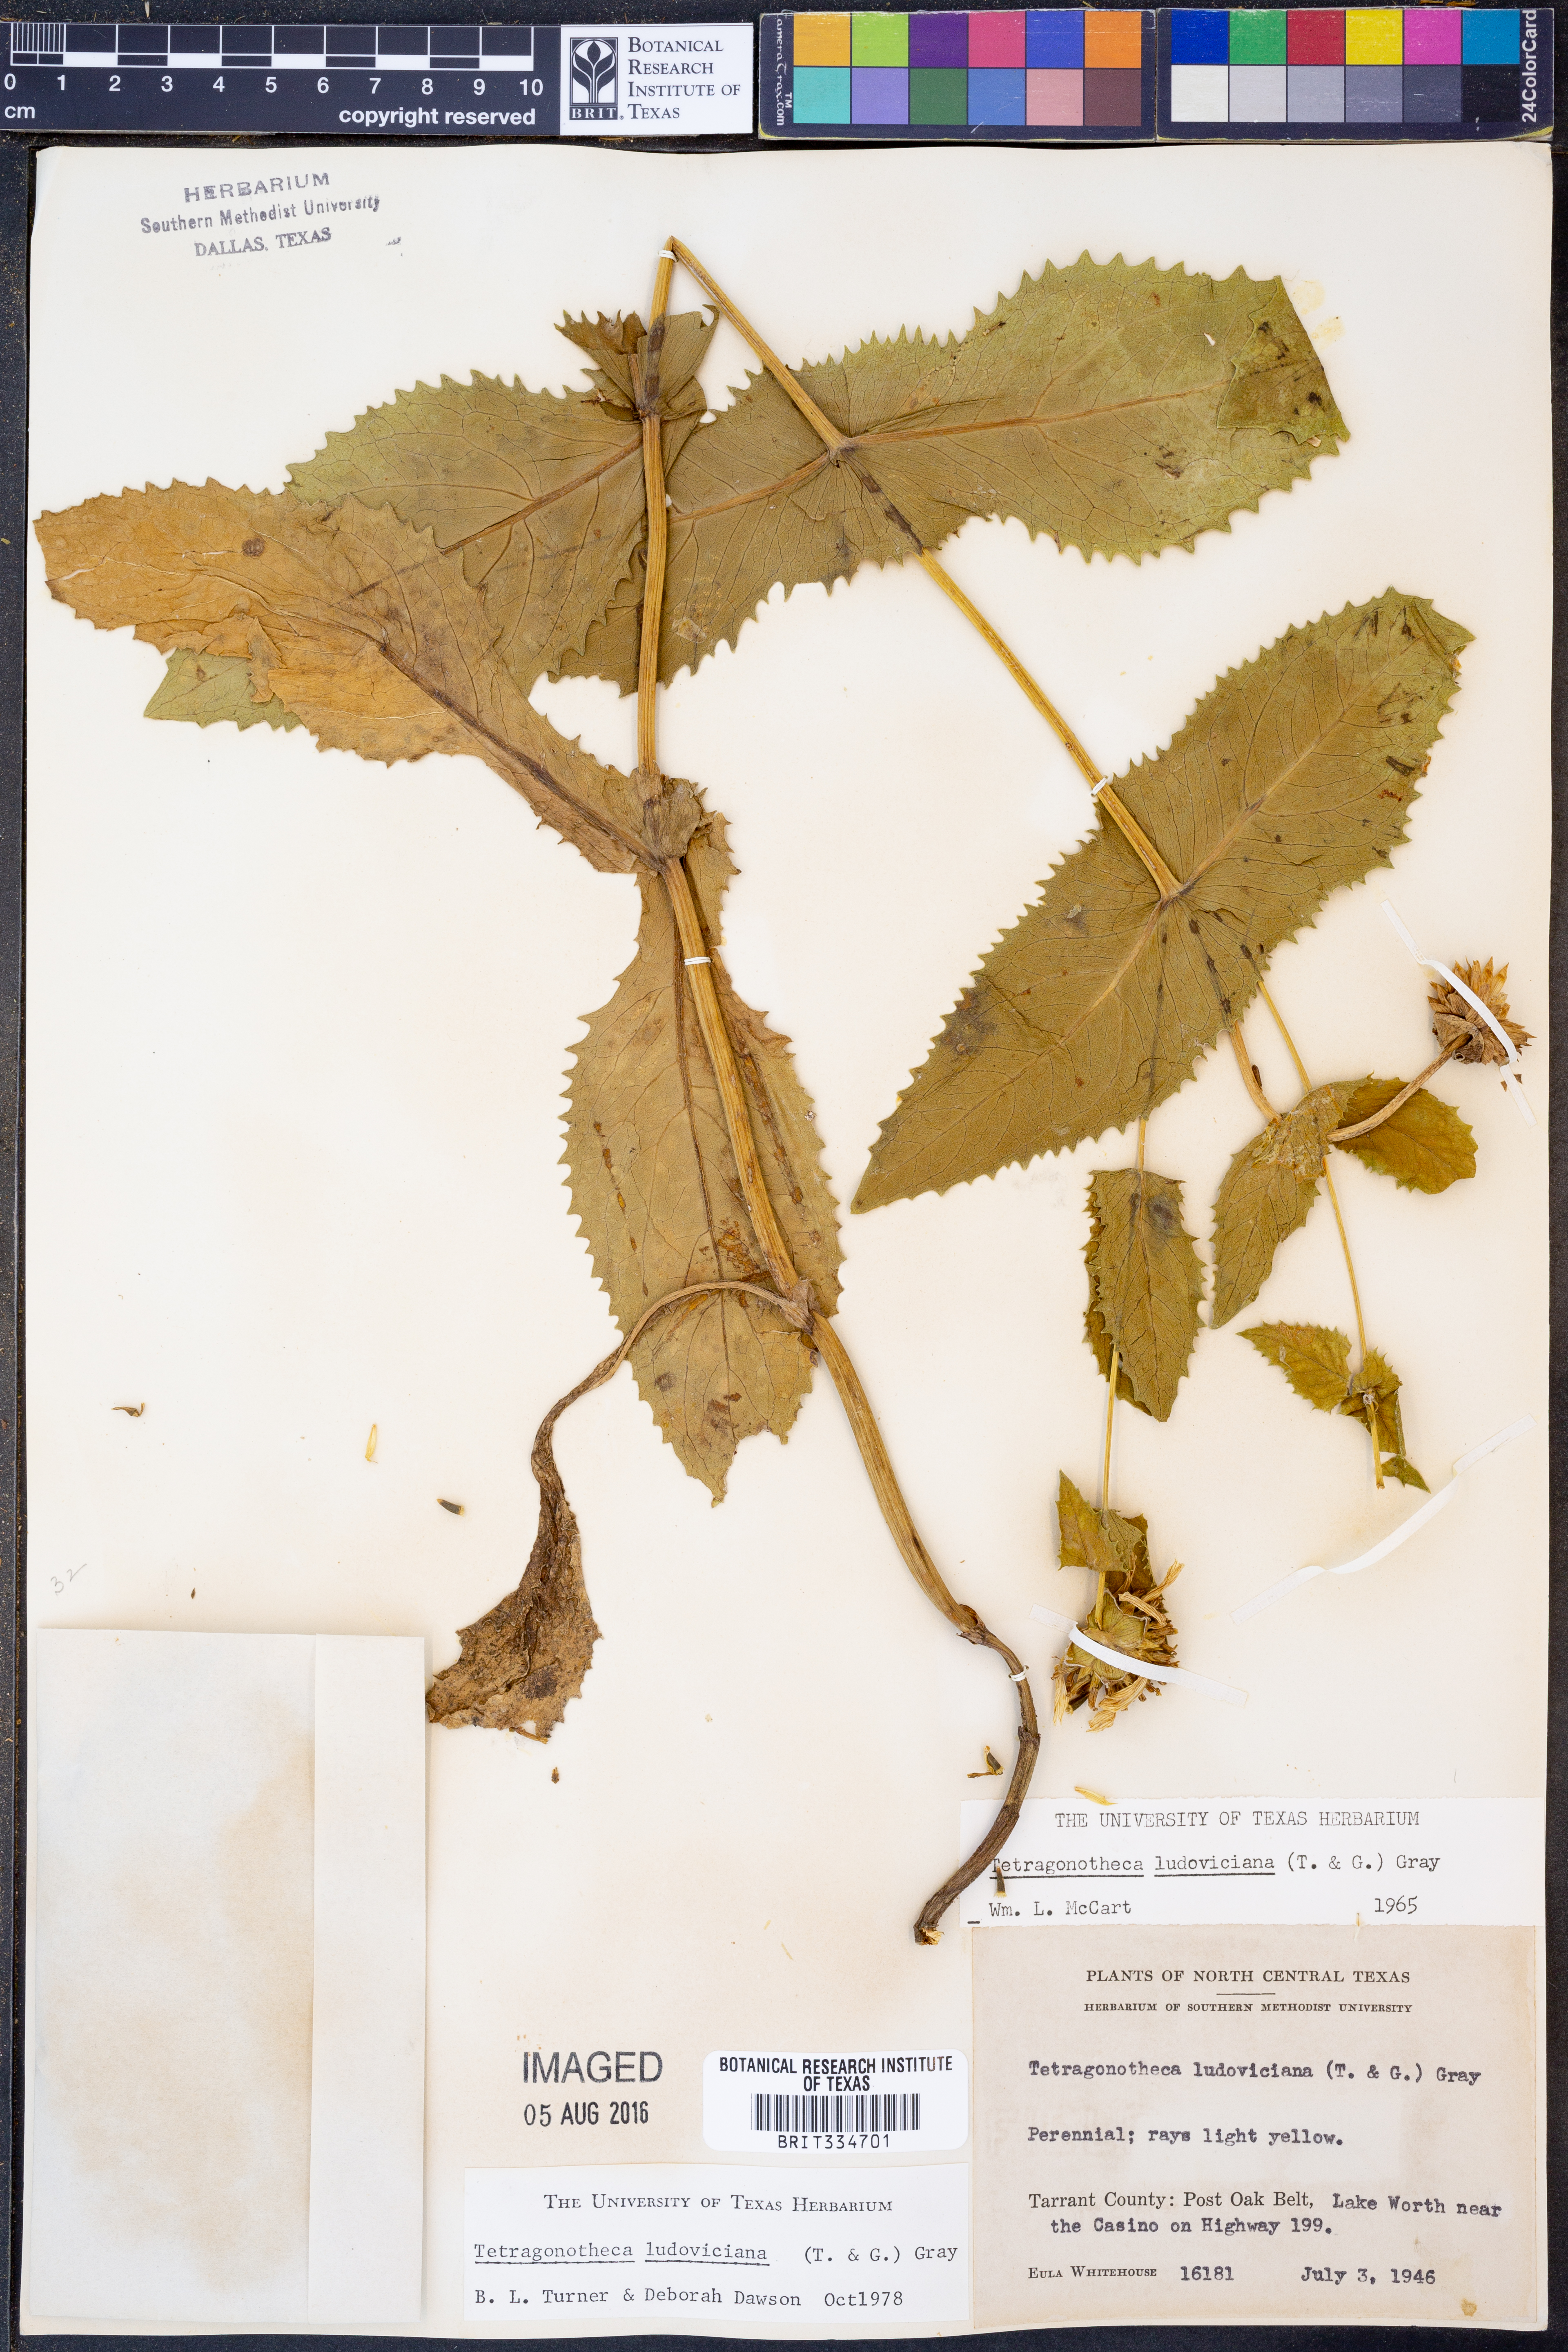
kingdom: Plantae
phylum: Tracheophyta
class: Magnoliopsida
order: Asterales
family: Asteraceae
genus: Tetragonotheca
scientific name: Tetragonotheca ludoviciana
